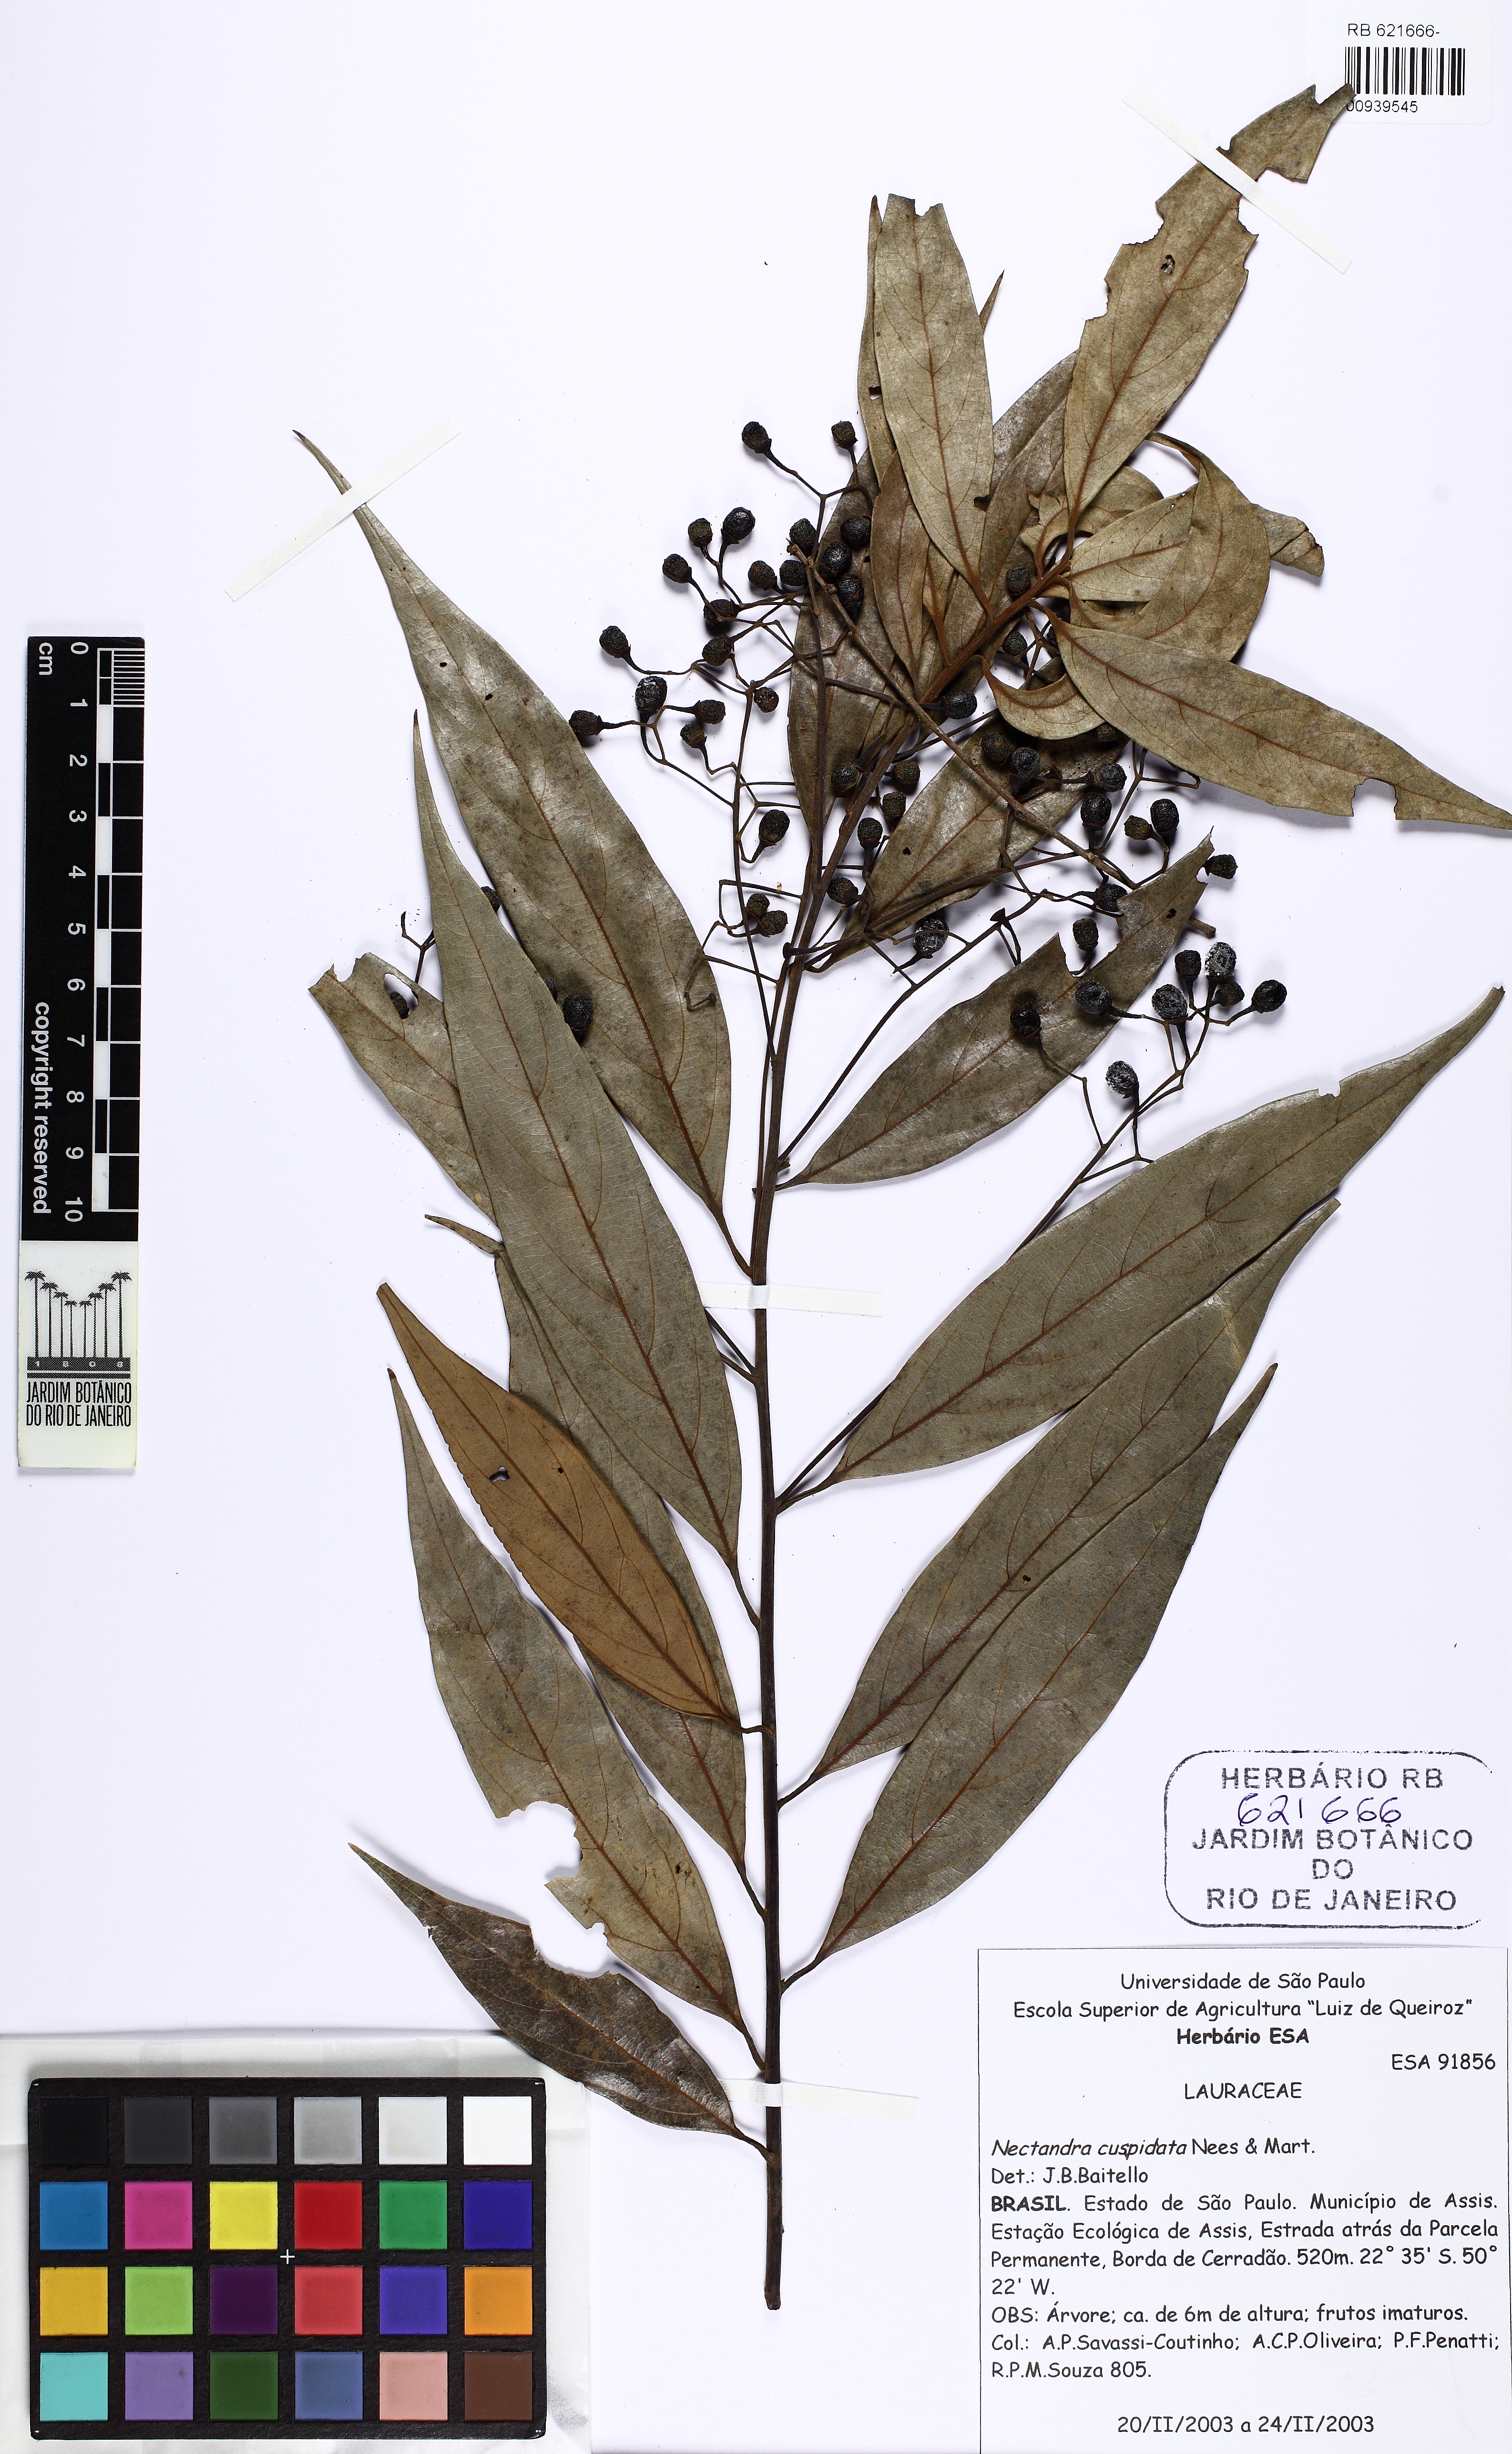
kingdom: Plantae
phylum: Tracheophyta
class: Magnoliopsida
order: Laurales
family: Lauraceae
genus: Nectandra
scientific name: Nectandra cuspidata
